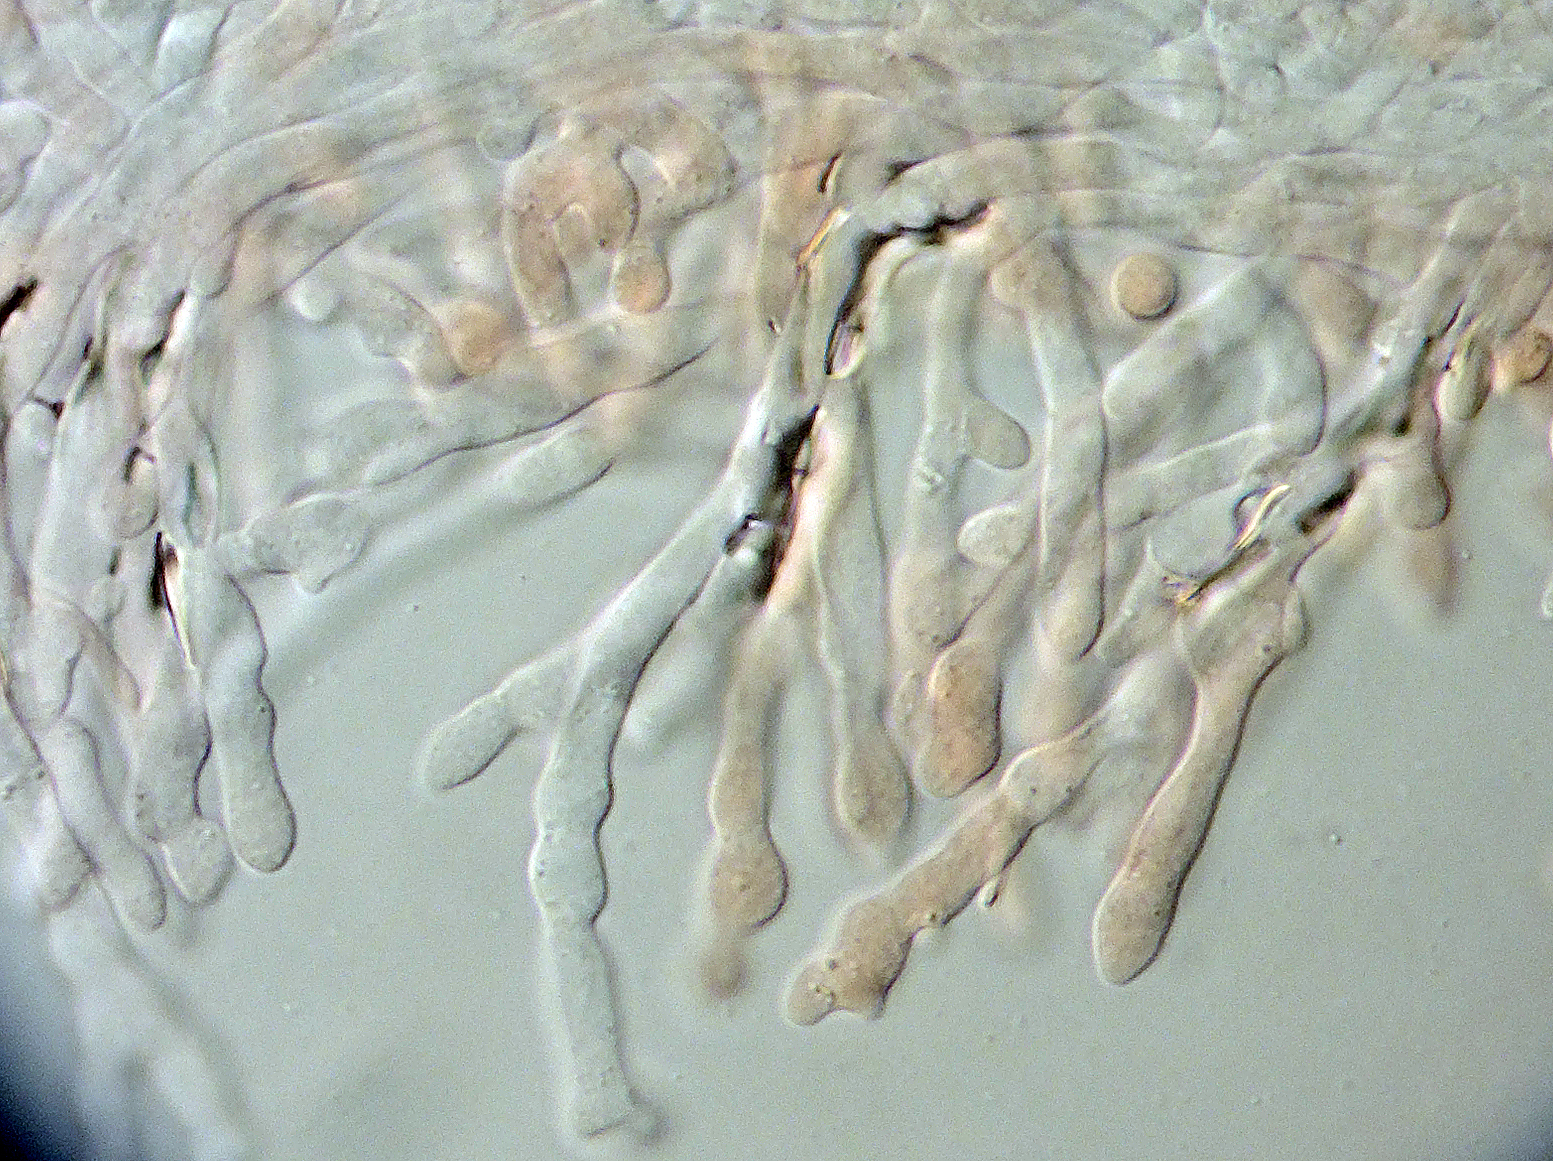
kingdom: Fungi
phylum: Basidiomycota
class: Agaricomycetes
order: Agaricales
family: Omphalotaceae
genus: Collybiopsis
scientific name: Collybiopsis confluens
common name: knippe-fladhat
